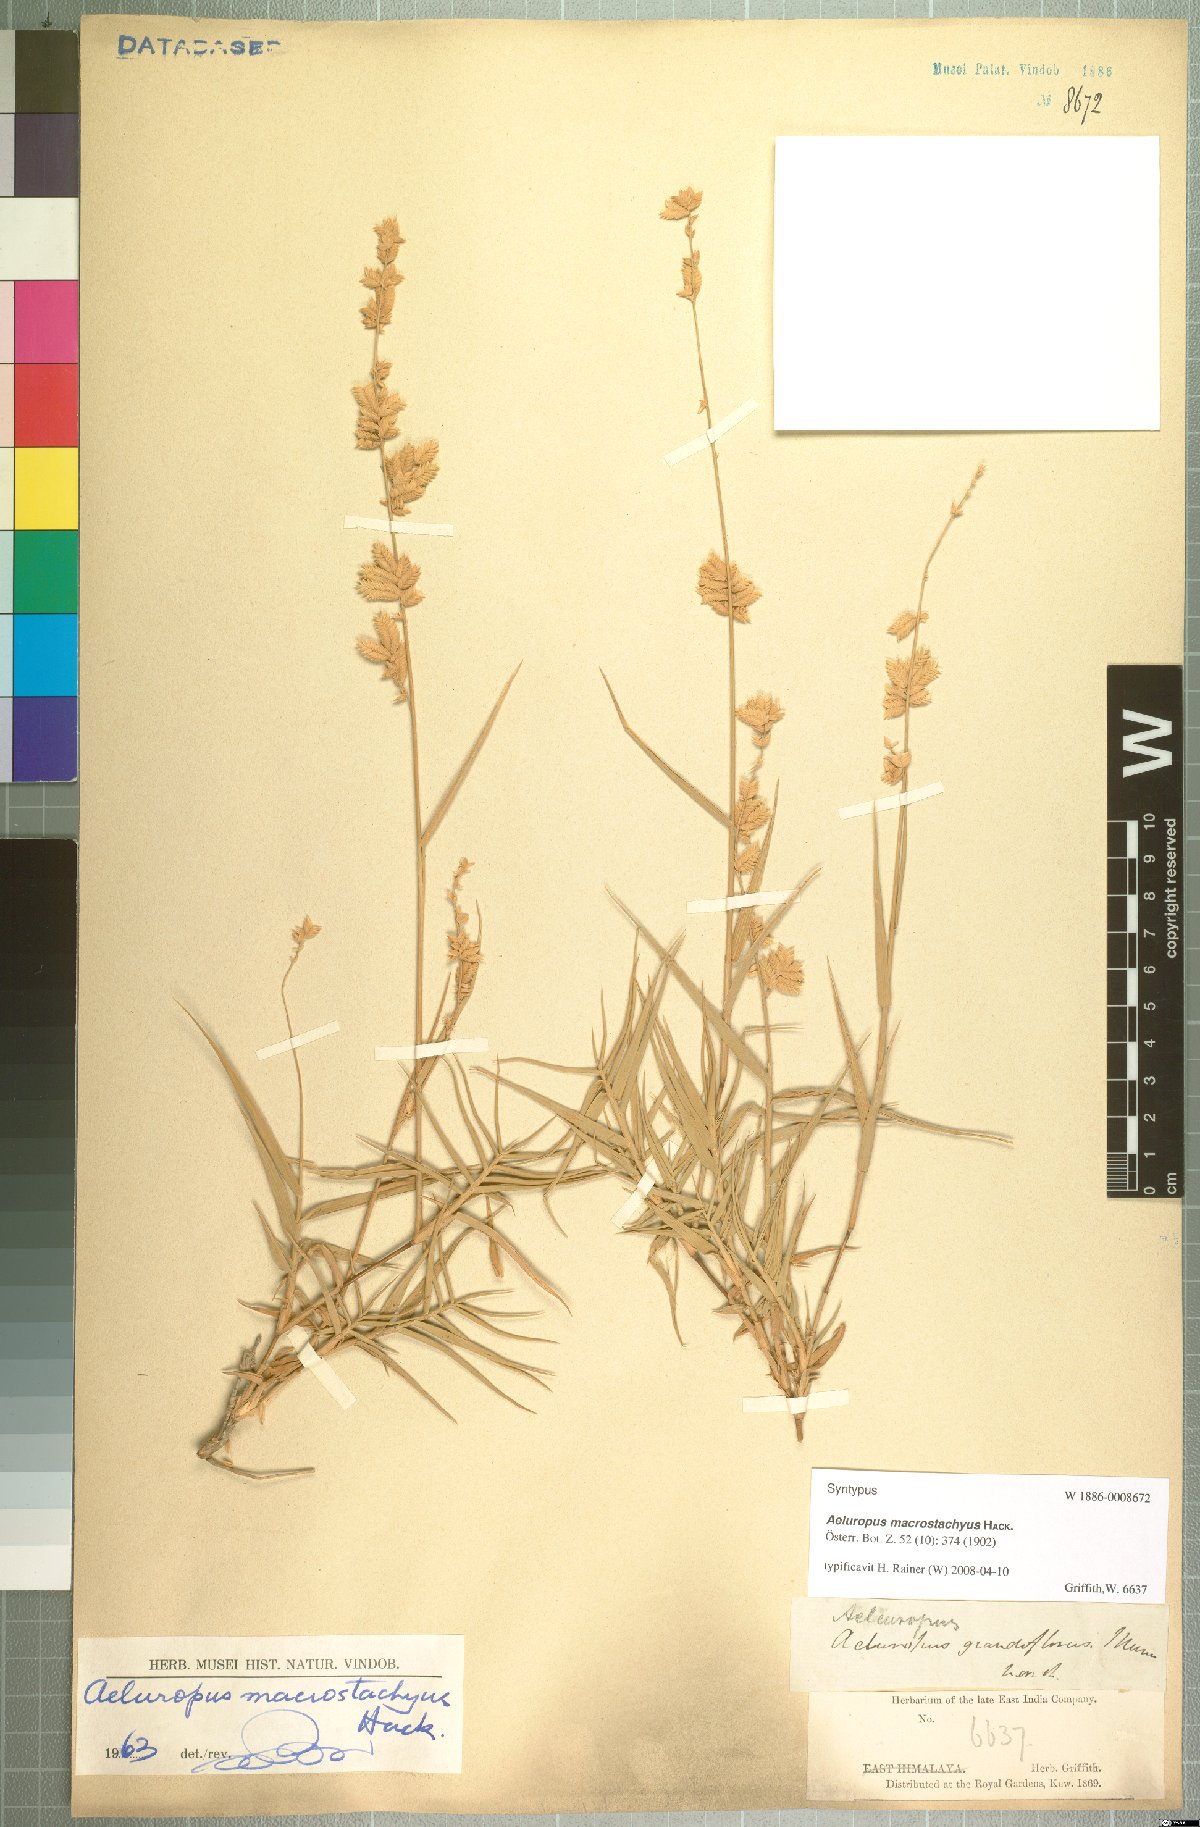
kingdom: Plantae
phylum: Tracheophyta
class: Liliopsida
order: Poales
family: Poaceae
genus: Aeluropus
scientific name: Aeluropus macrostachyus
